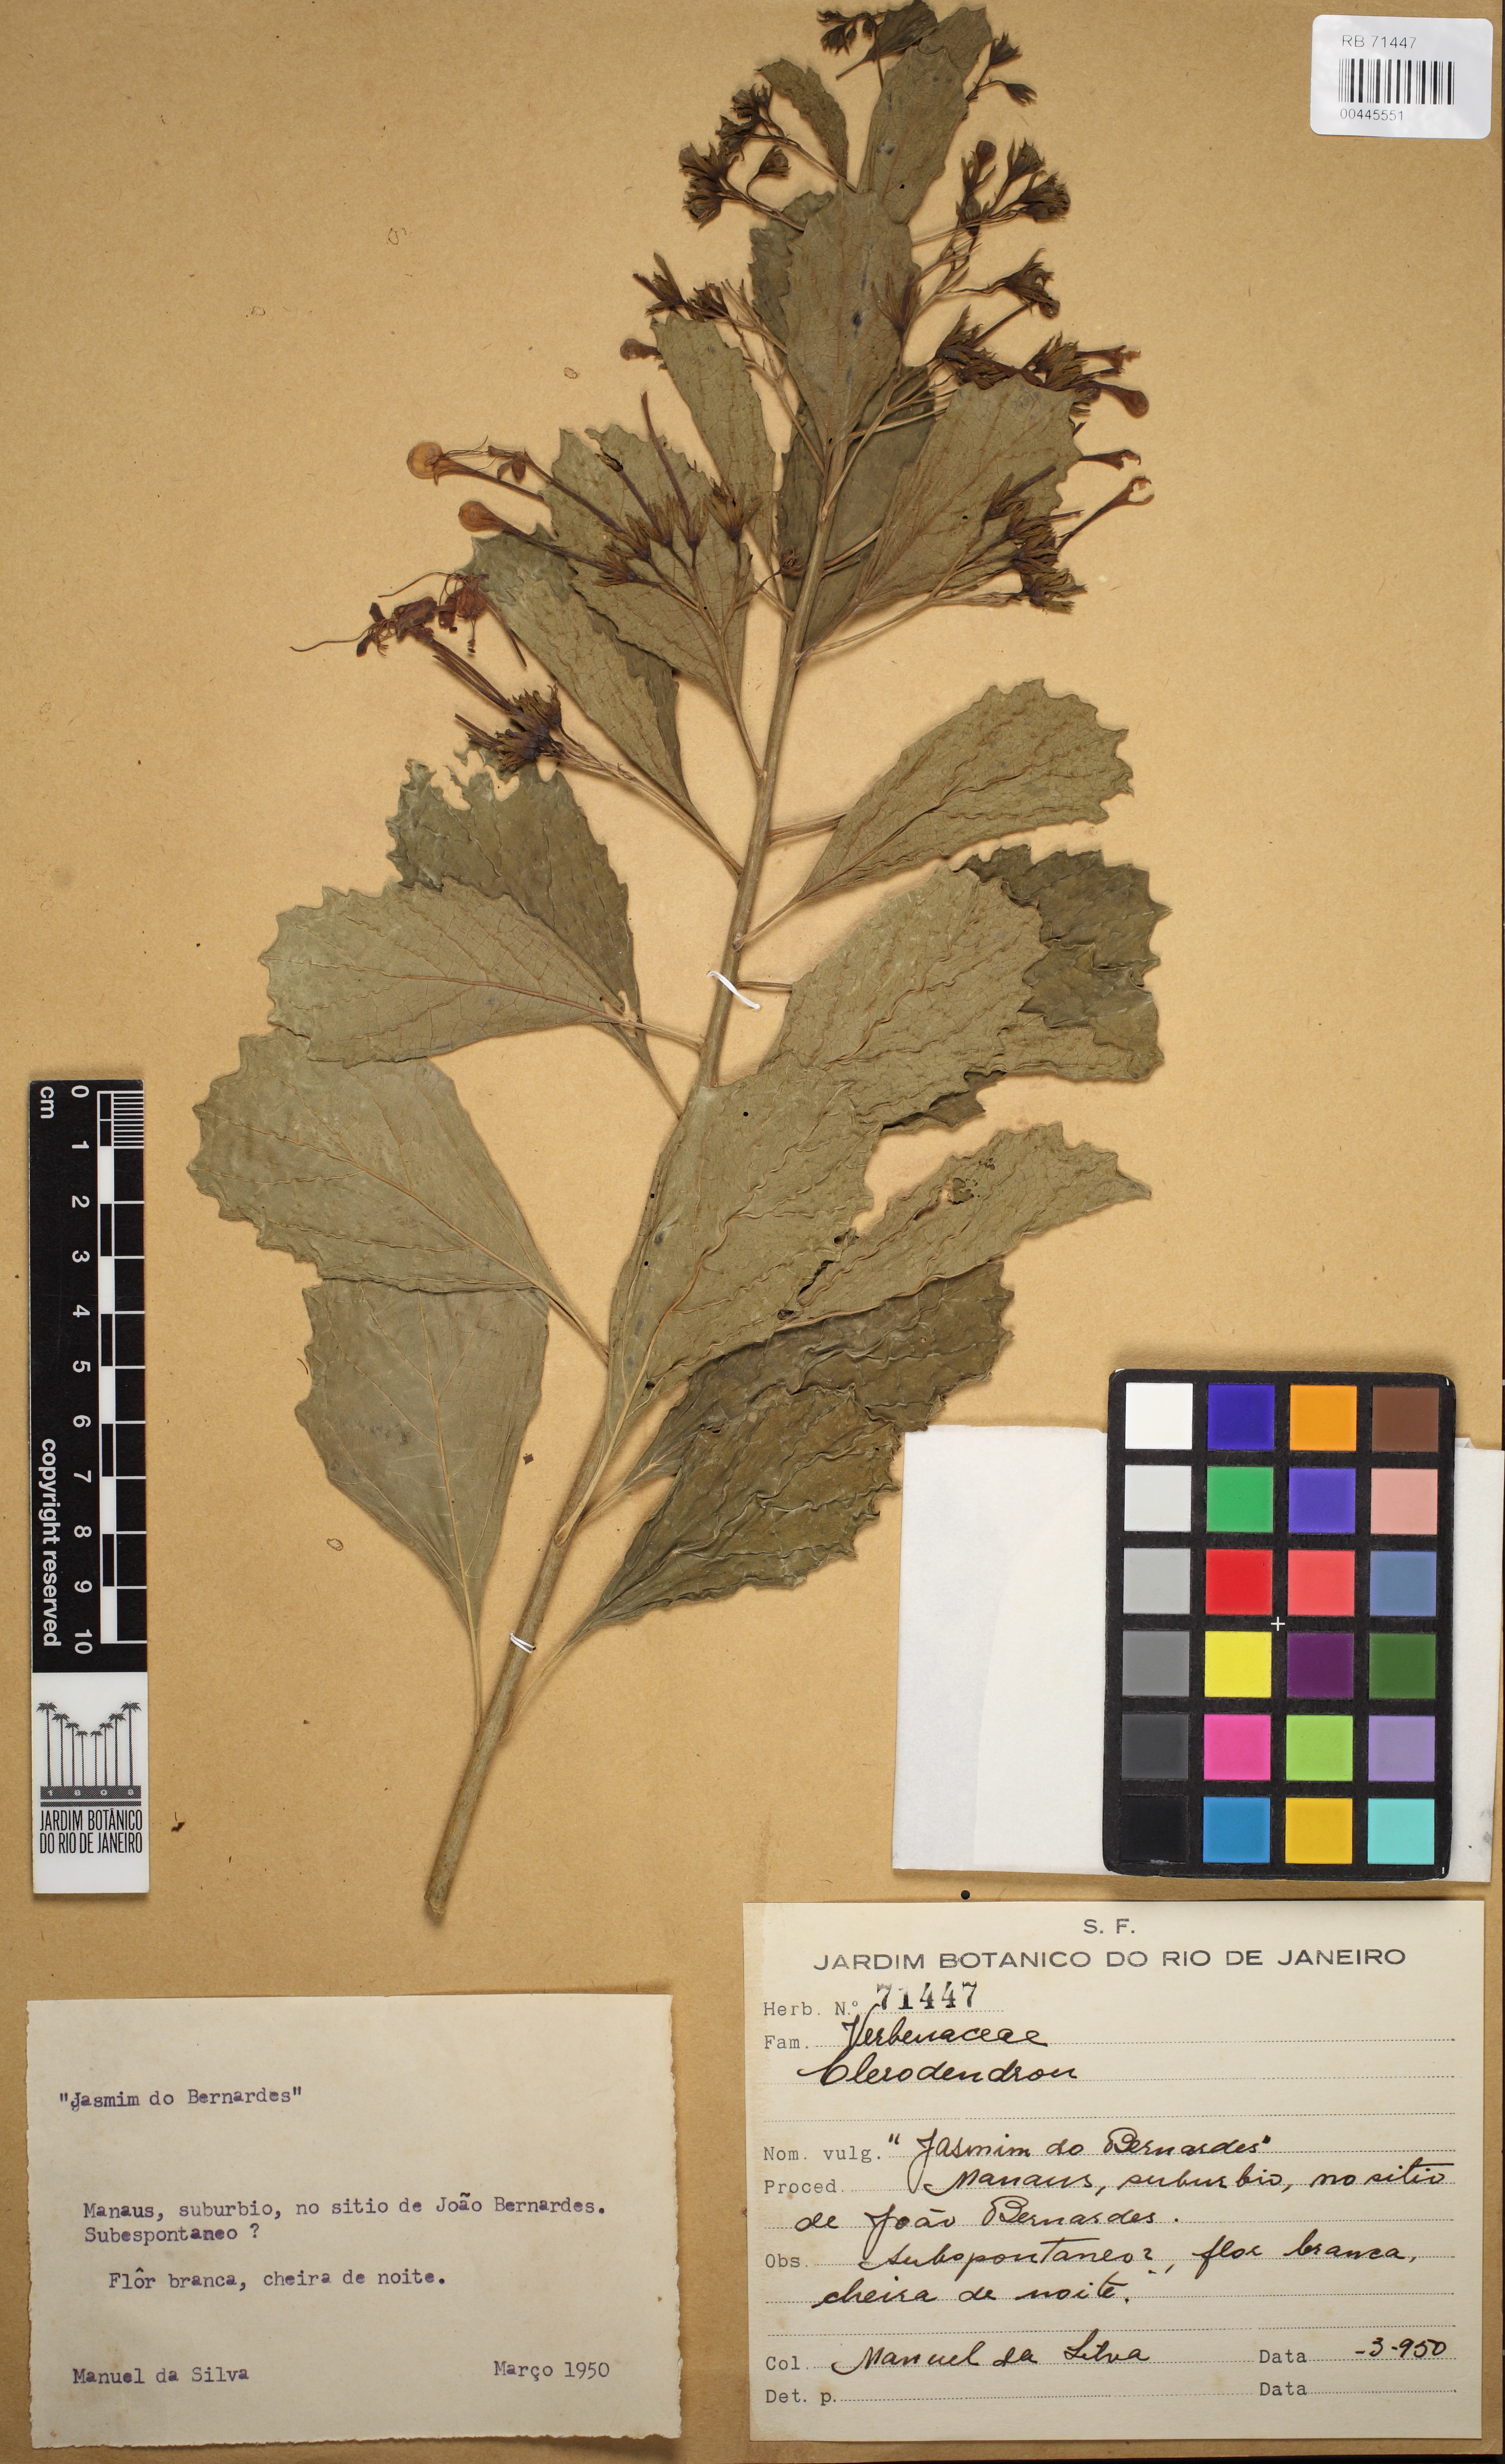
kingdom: Plantae
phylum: Tracheophyta
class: Magnoliopsida
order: Lamiales
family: Lamiaceae
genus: Clerodendrum
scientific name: Clerodendrum
